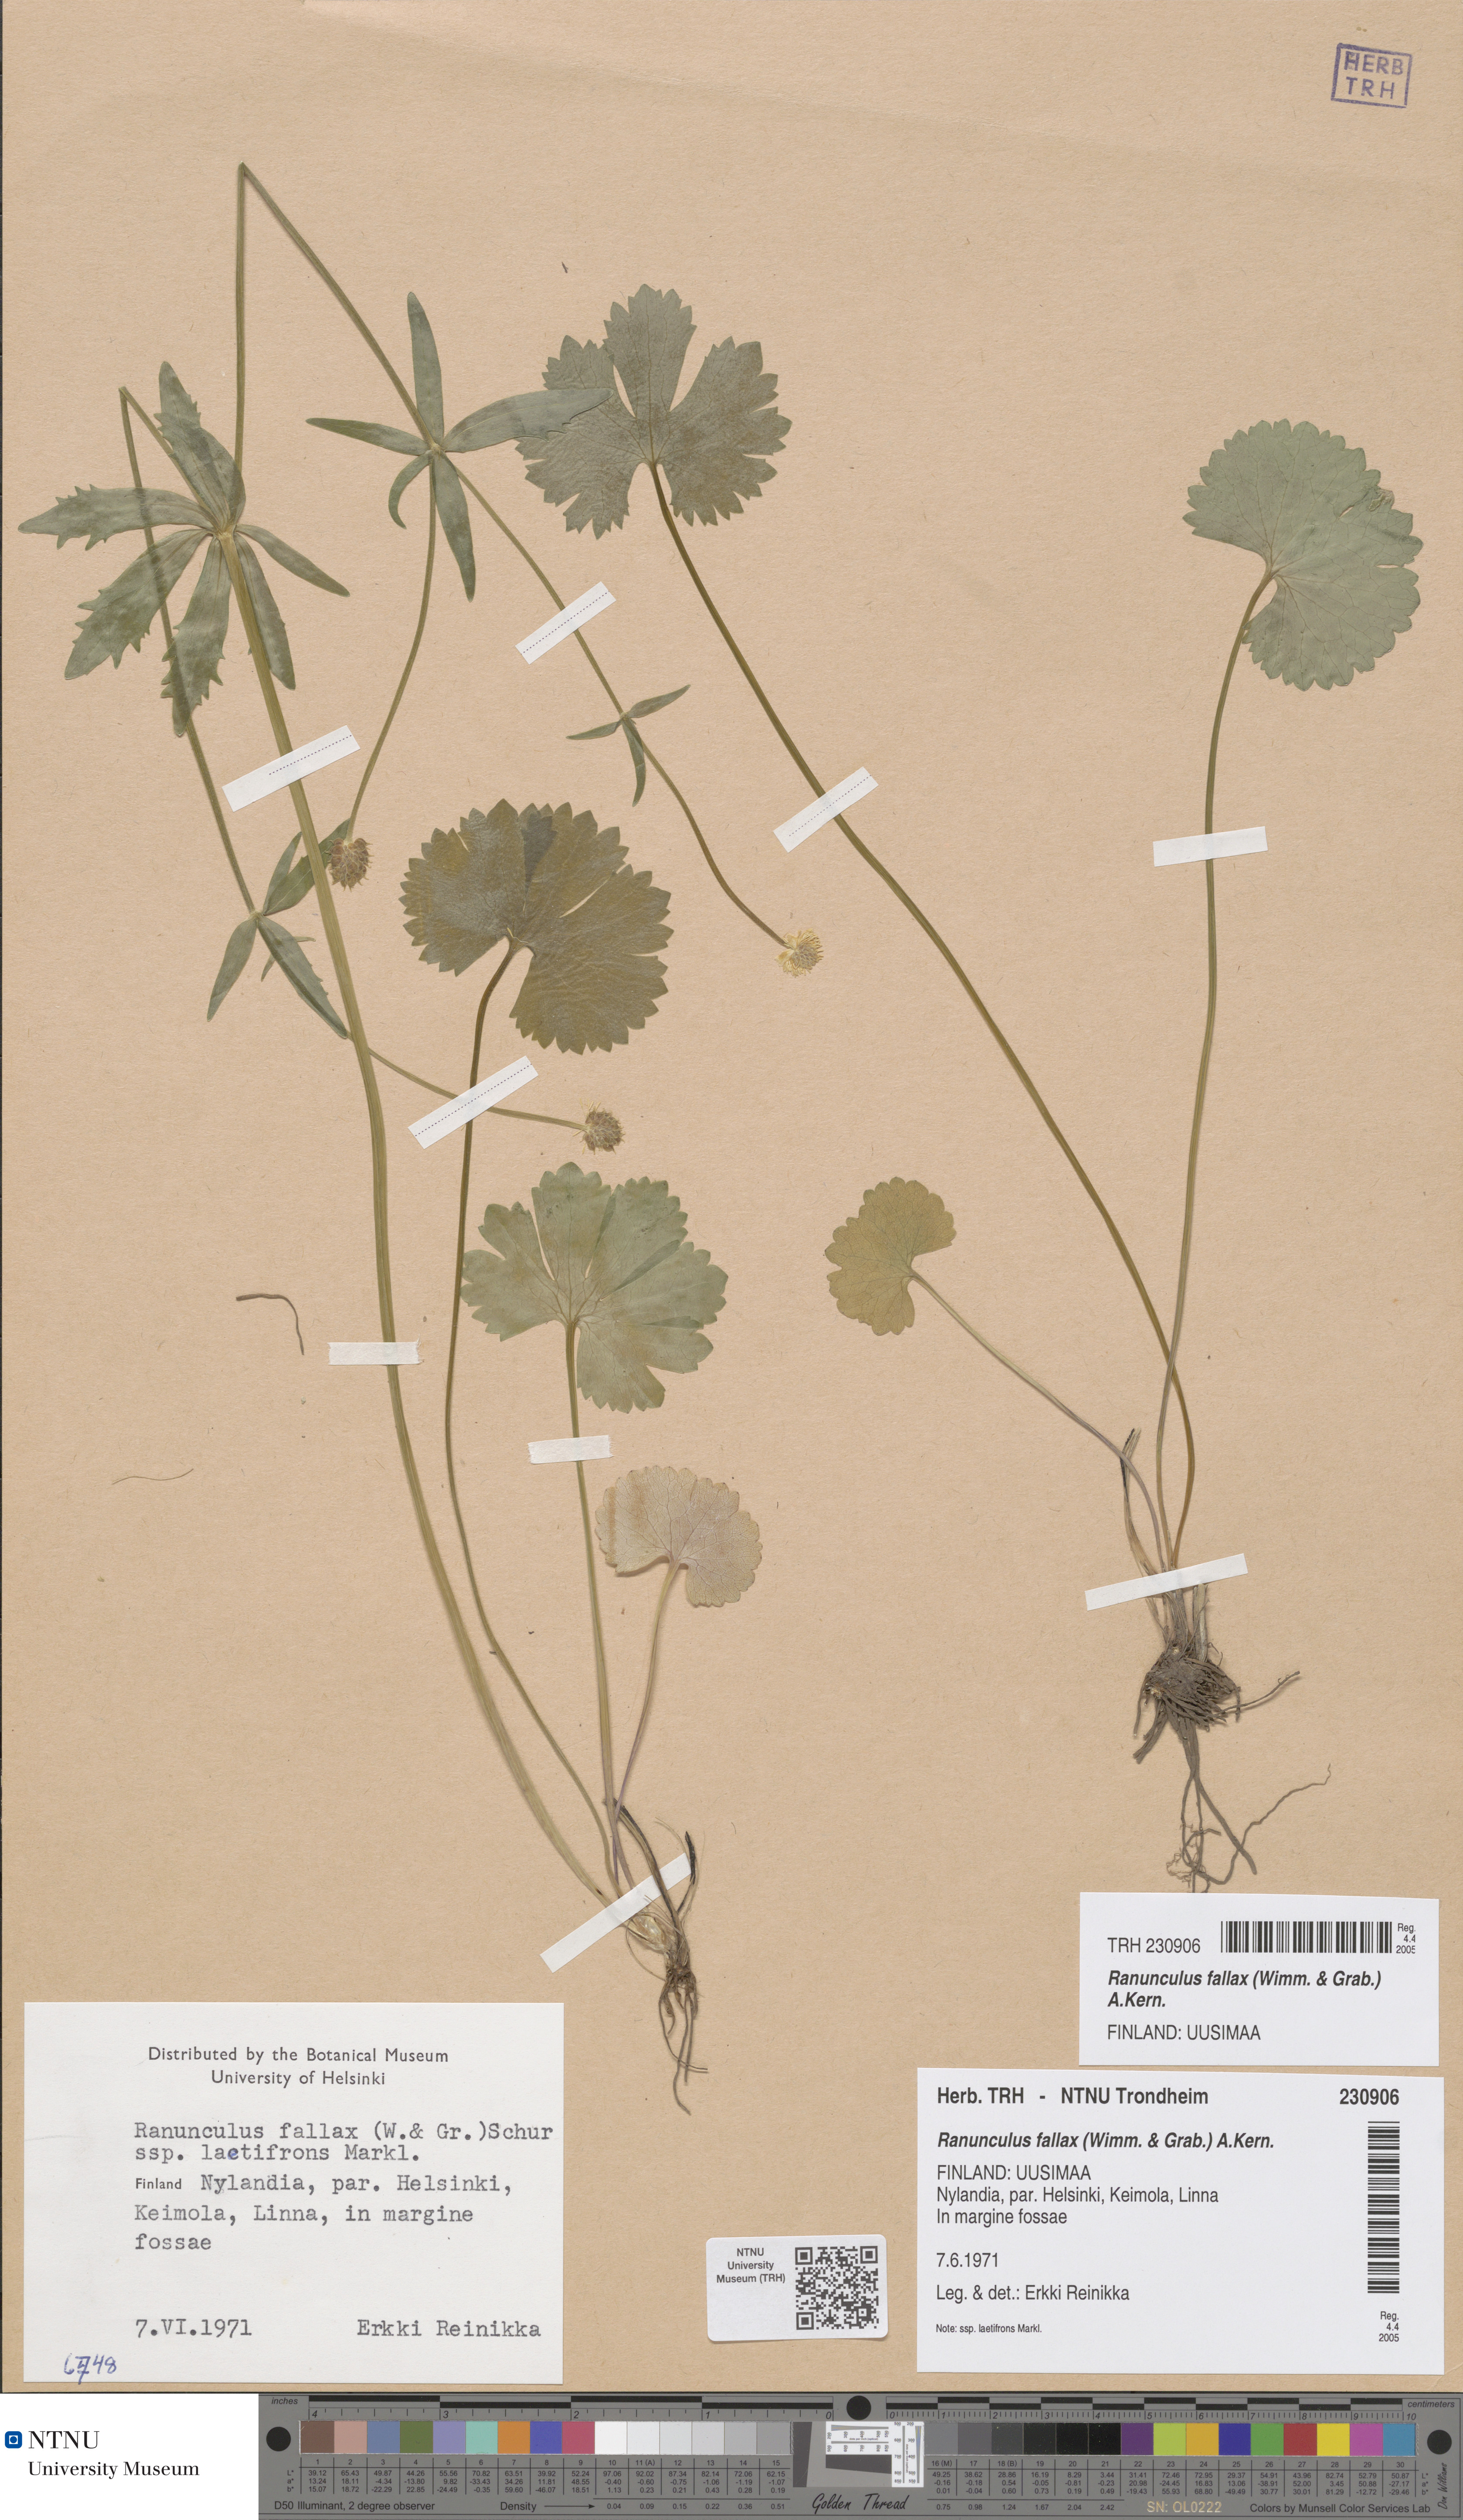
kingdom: Plantae
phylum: Tracheophyta
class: Magnoliopsida
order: Ranunculales
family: Ranunculaceae
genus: Ranunculus
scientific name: Ranunculus fallax
